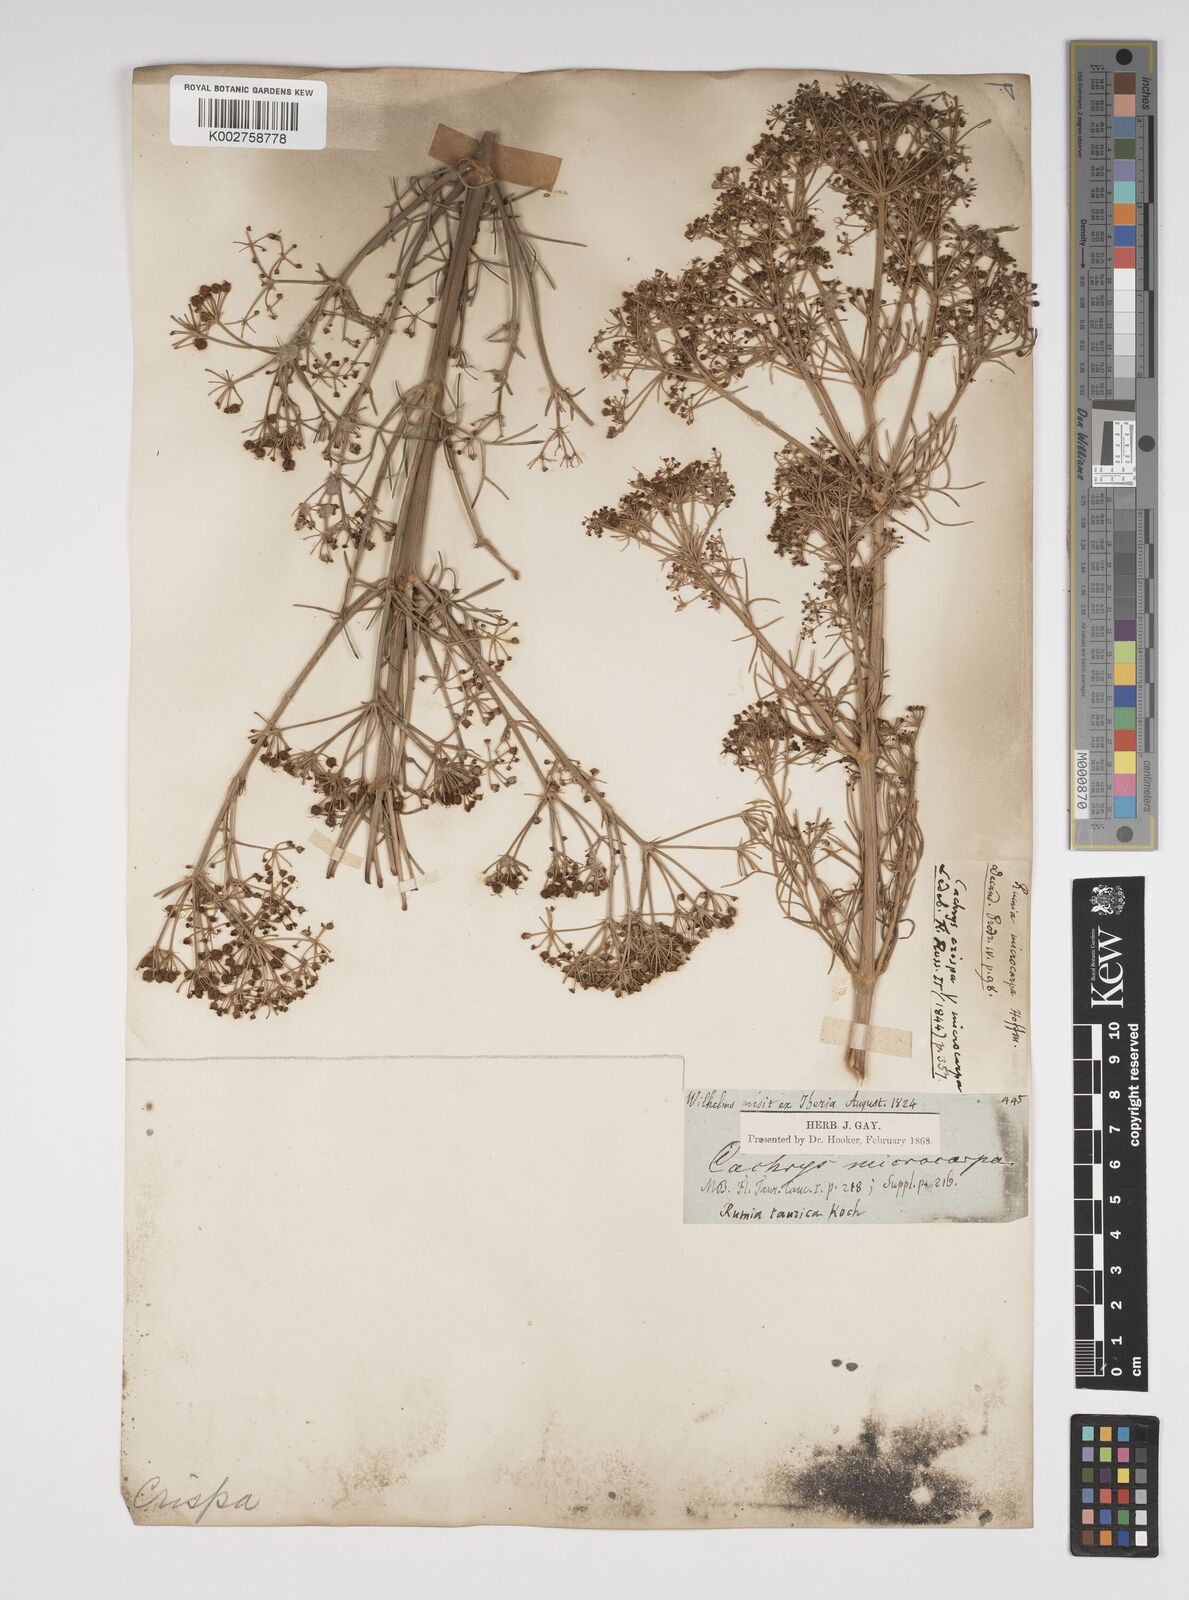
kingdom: Plantae
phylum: Tracheophyta
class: Magnoliopsida
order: Apiales
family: Apiaceae
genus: Bilacunaria
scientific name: Bilacunaria microcarpa
